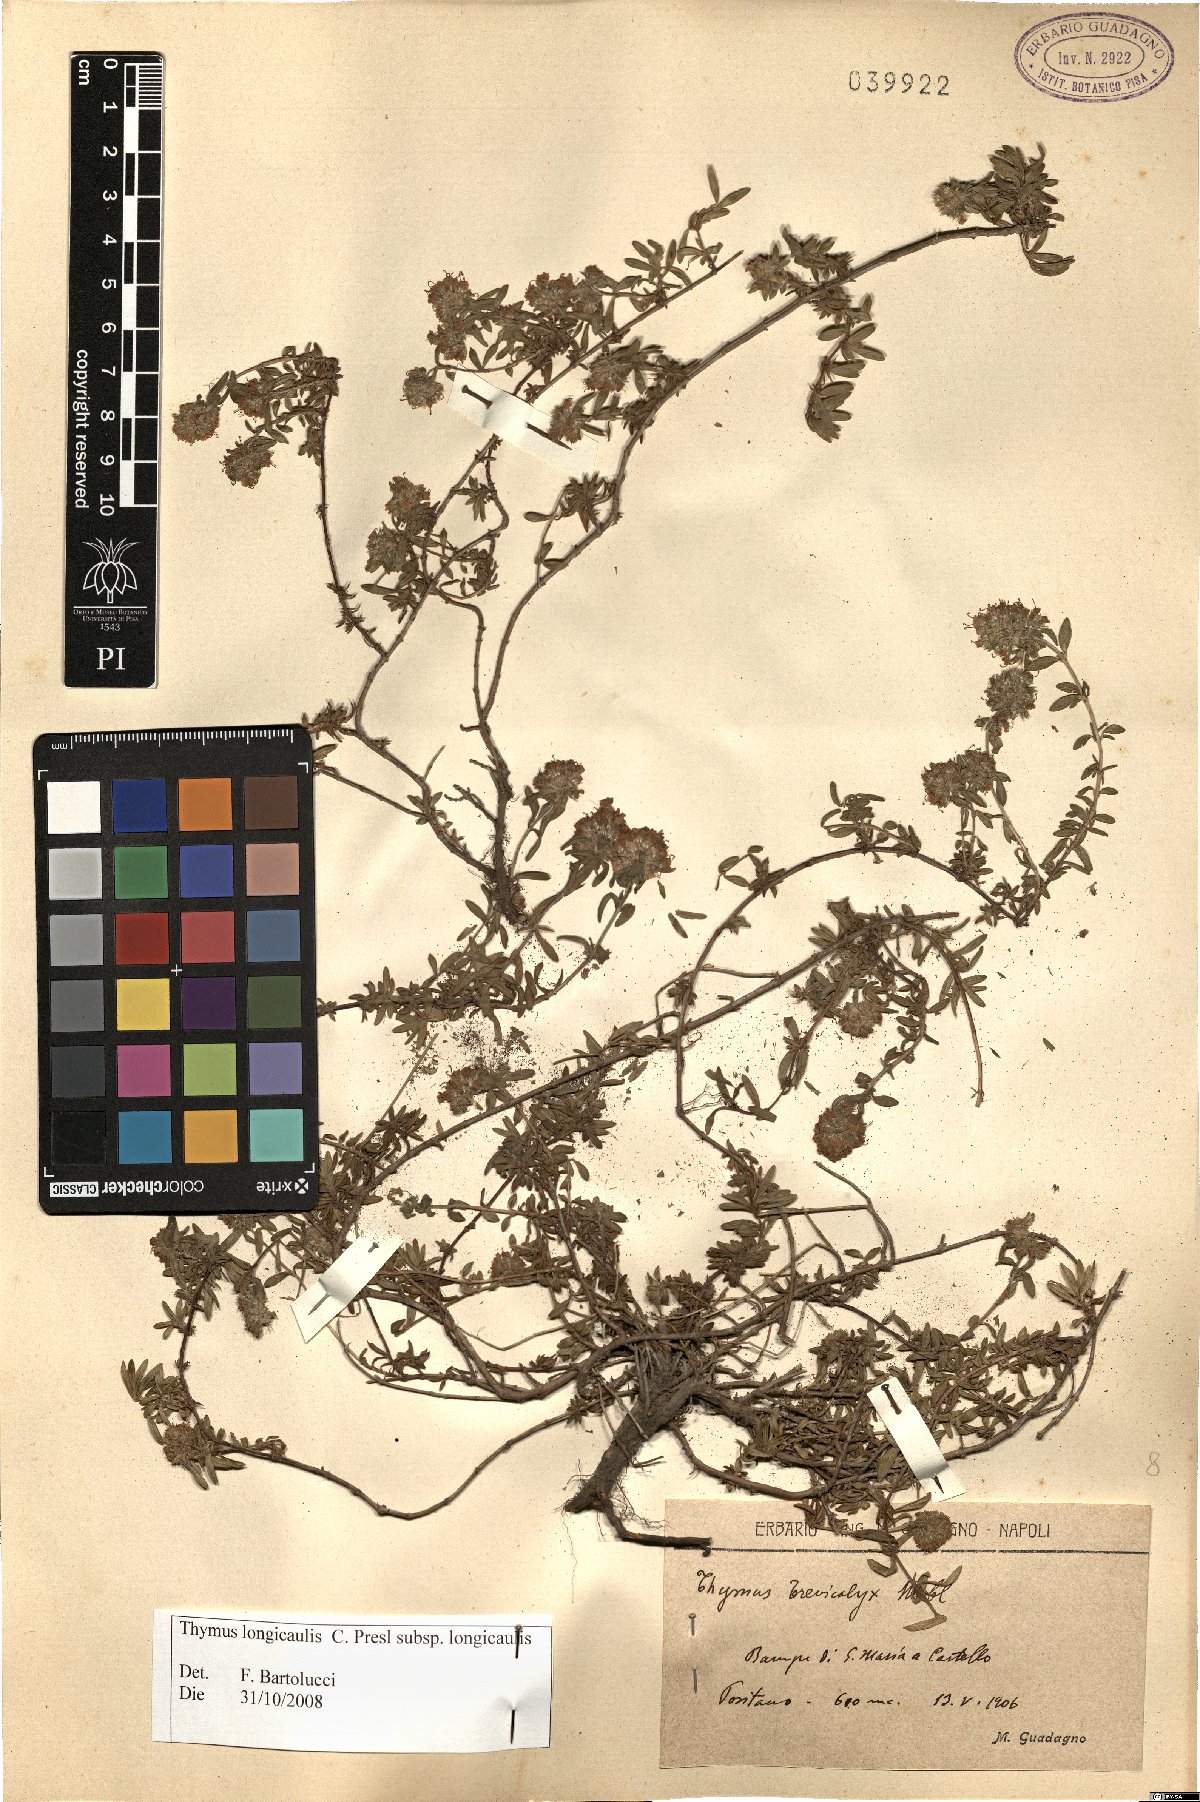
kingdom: Plantae
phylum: Tracheophyta
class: Magnoliopsida
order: Lamiales
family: Lamiaceae
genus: Thymus
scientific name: Thymus longicaulis
